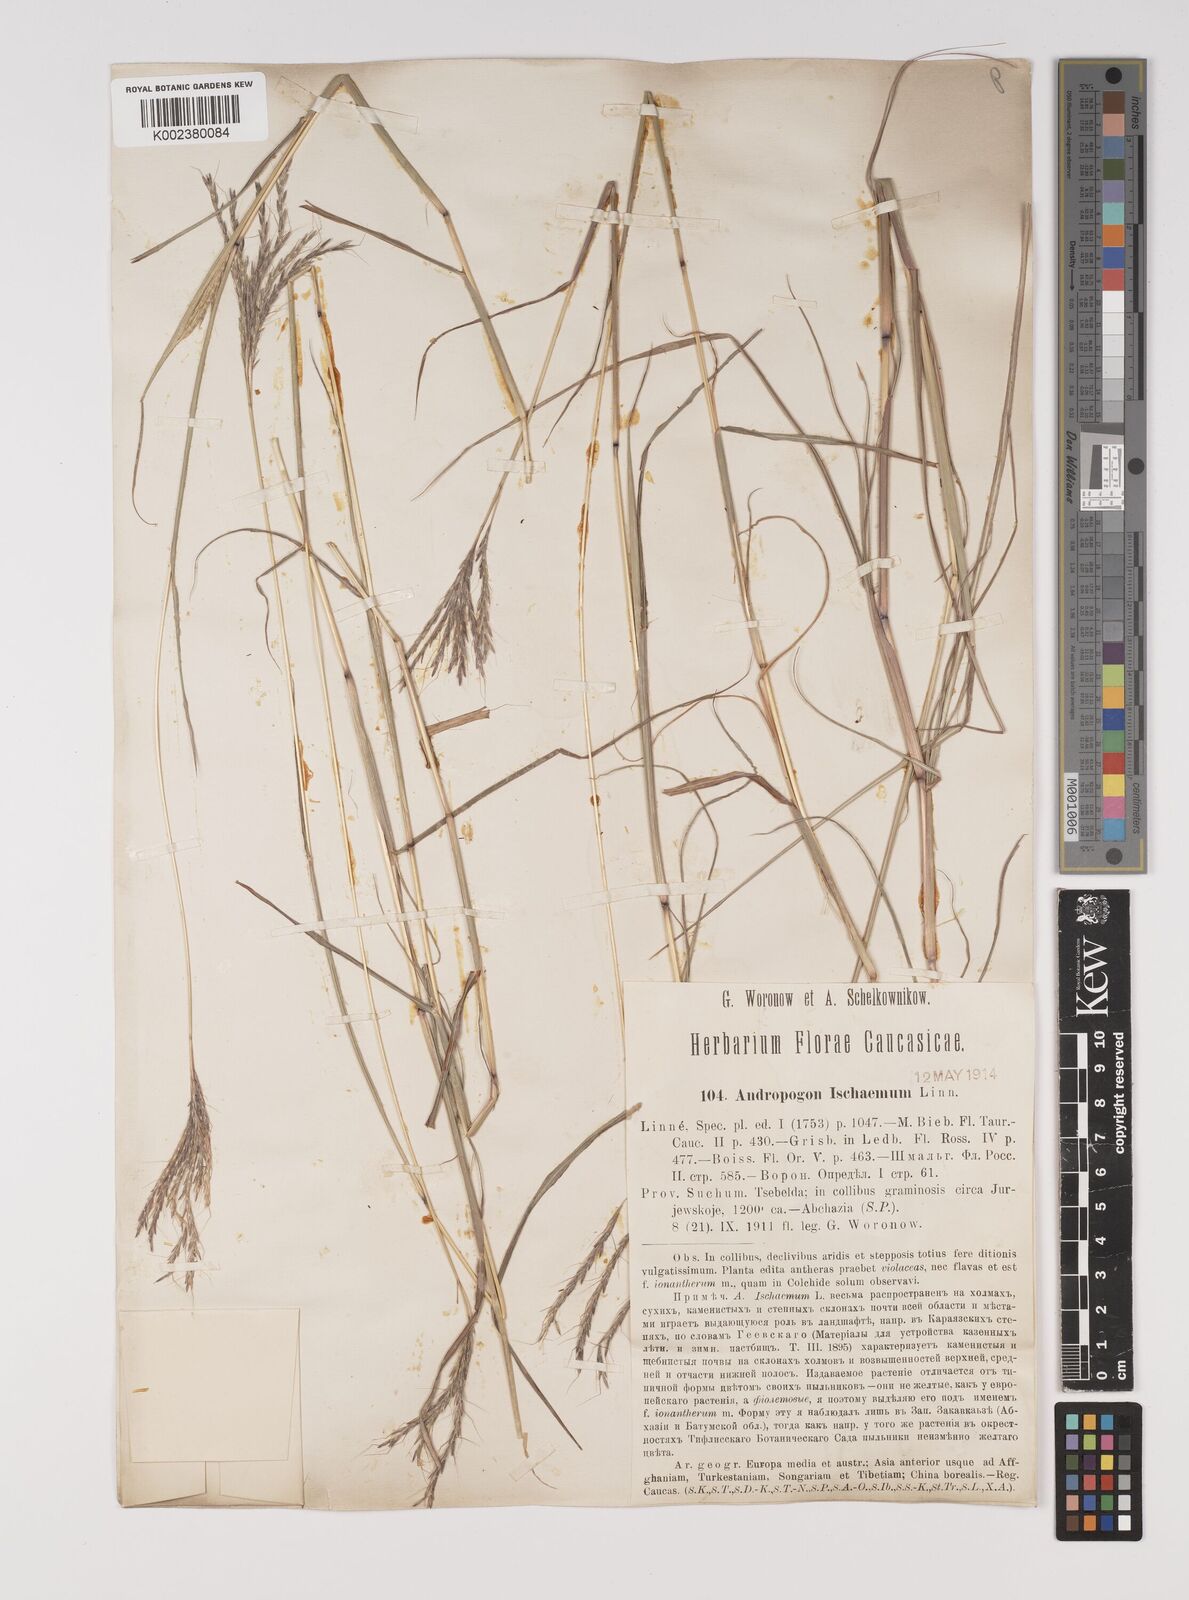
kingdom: Plantae
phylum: Tracheophyta
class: Liliopsida
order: Poales
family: Poaceae
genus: Bothriochloa
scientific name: Bothriochloa ischaemum
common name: Yellow bluestem
